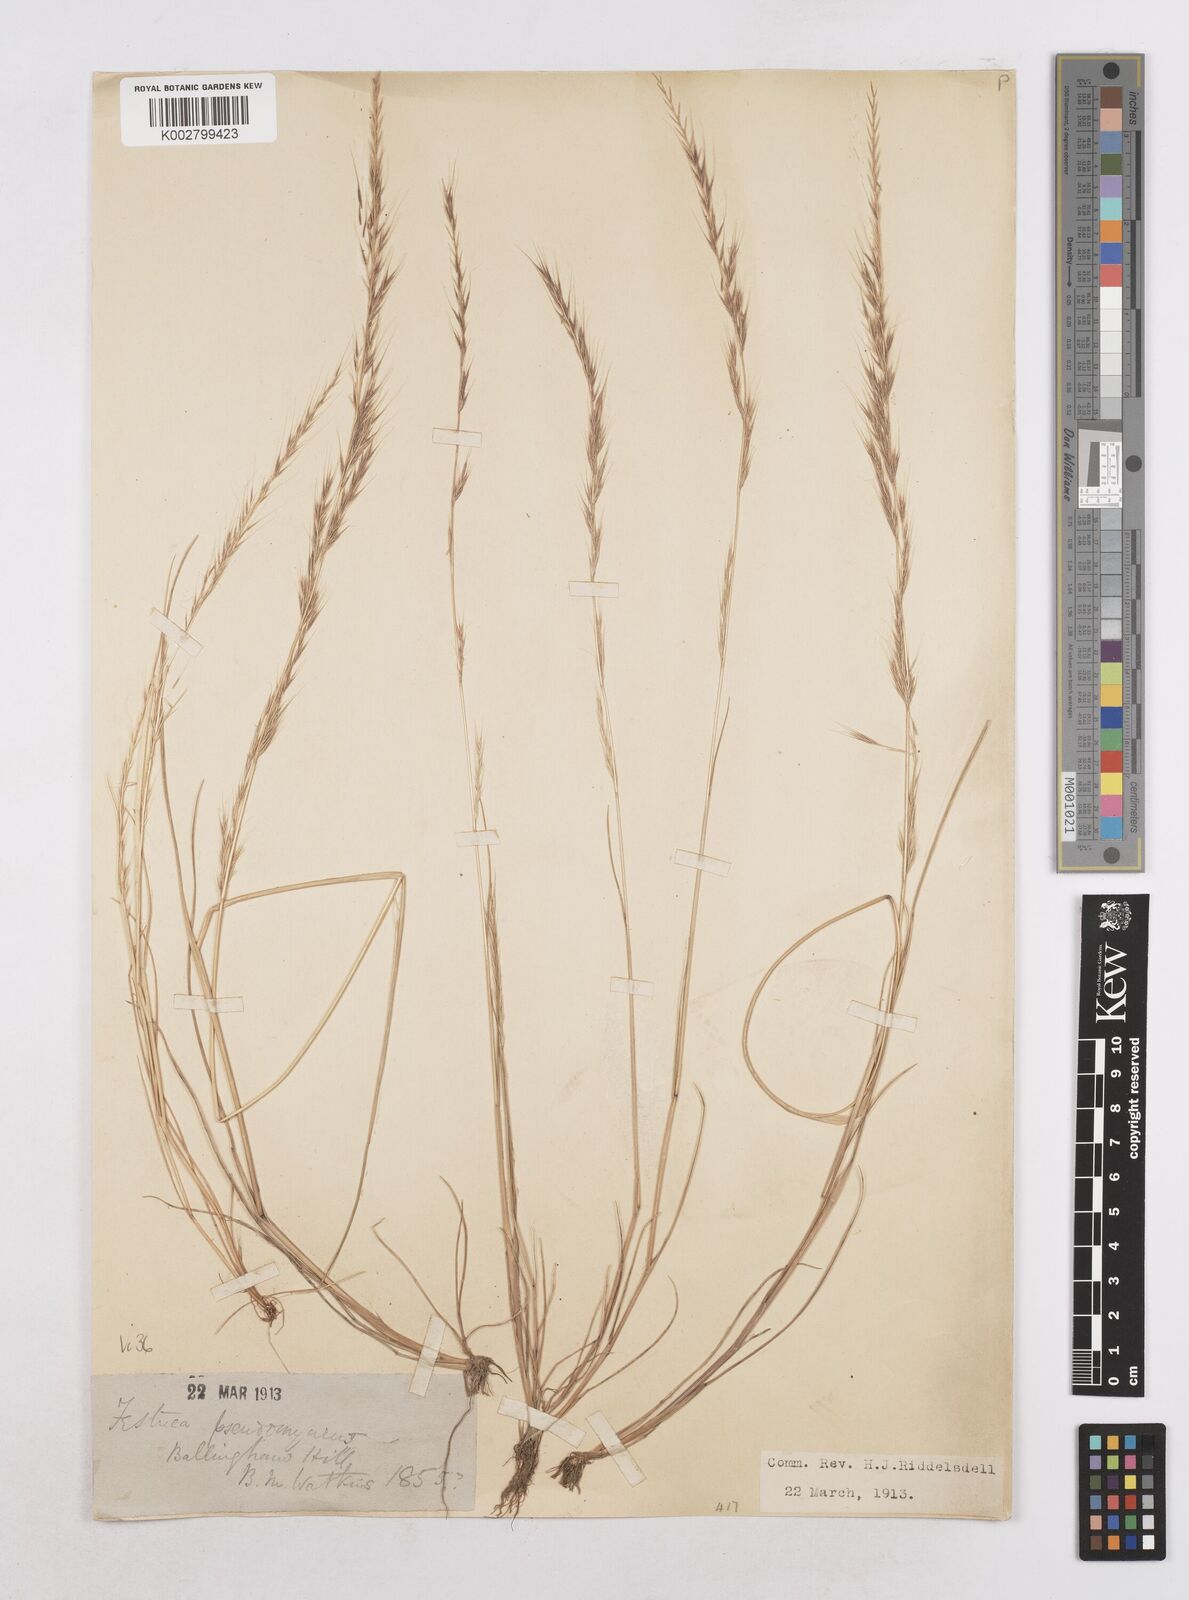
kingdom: Plantae
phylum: Tracheophyta
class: Liliopsida
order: Poales
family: Poaceae
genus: Festuca
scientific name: Festuca myuros
